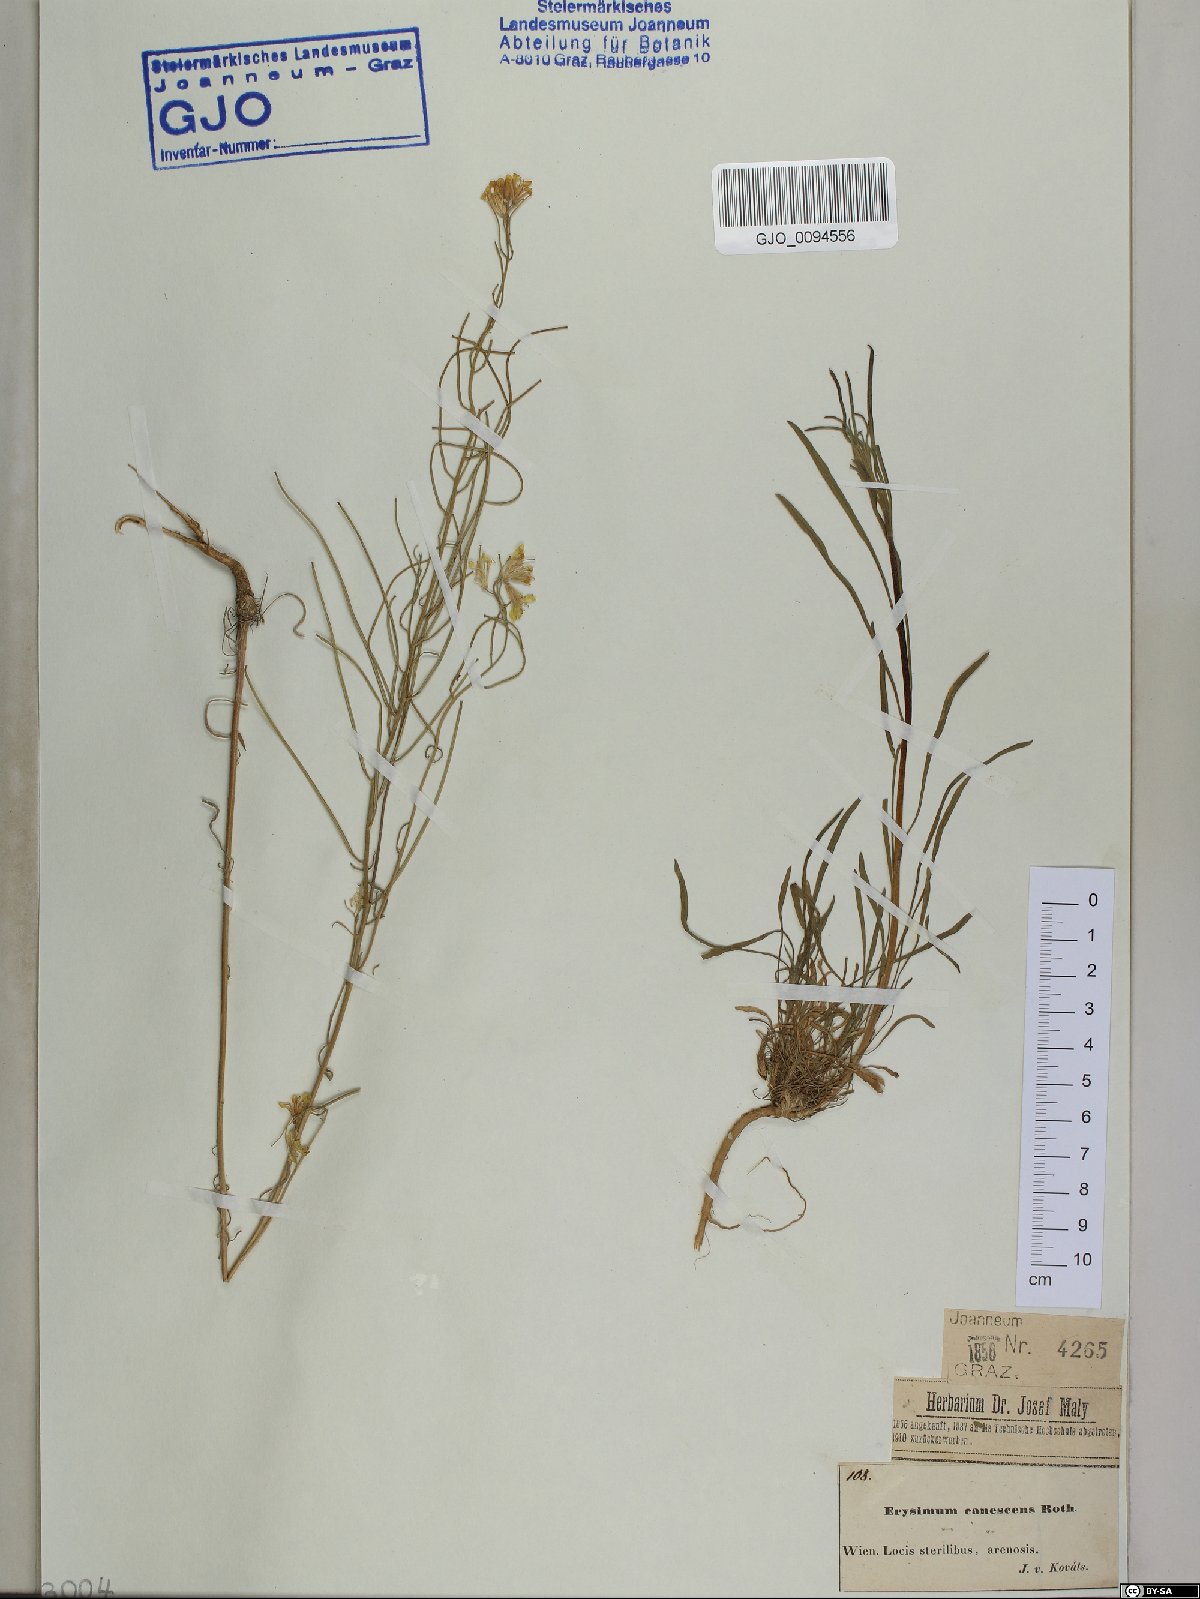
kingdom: Plantae
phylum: Tracheophyta
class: Magnoliopsida
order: Brassicales
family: Brassicaceae
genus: Erysimum
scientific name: Erysimum canescens
